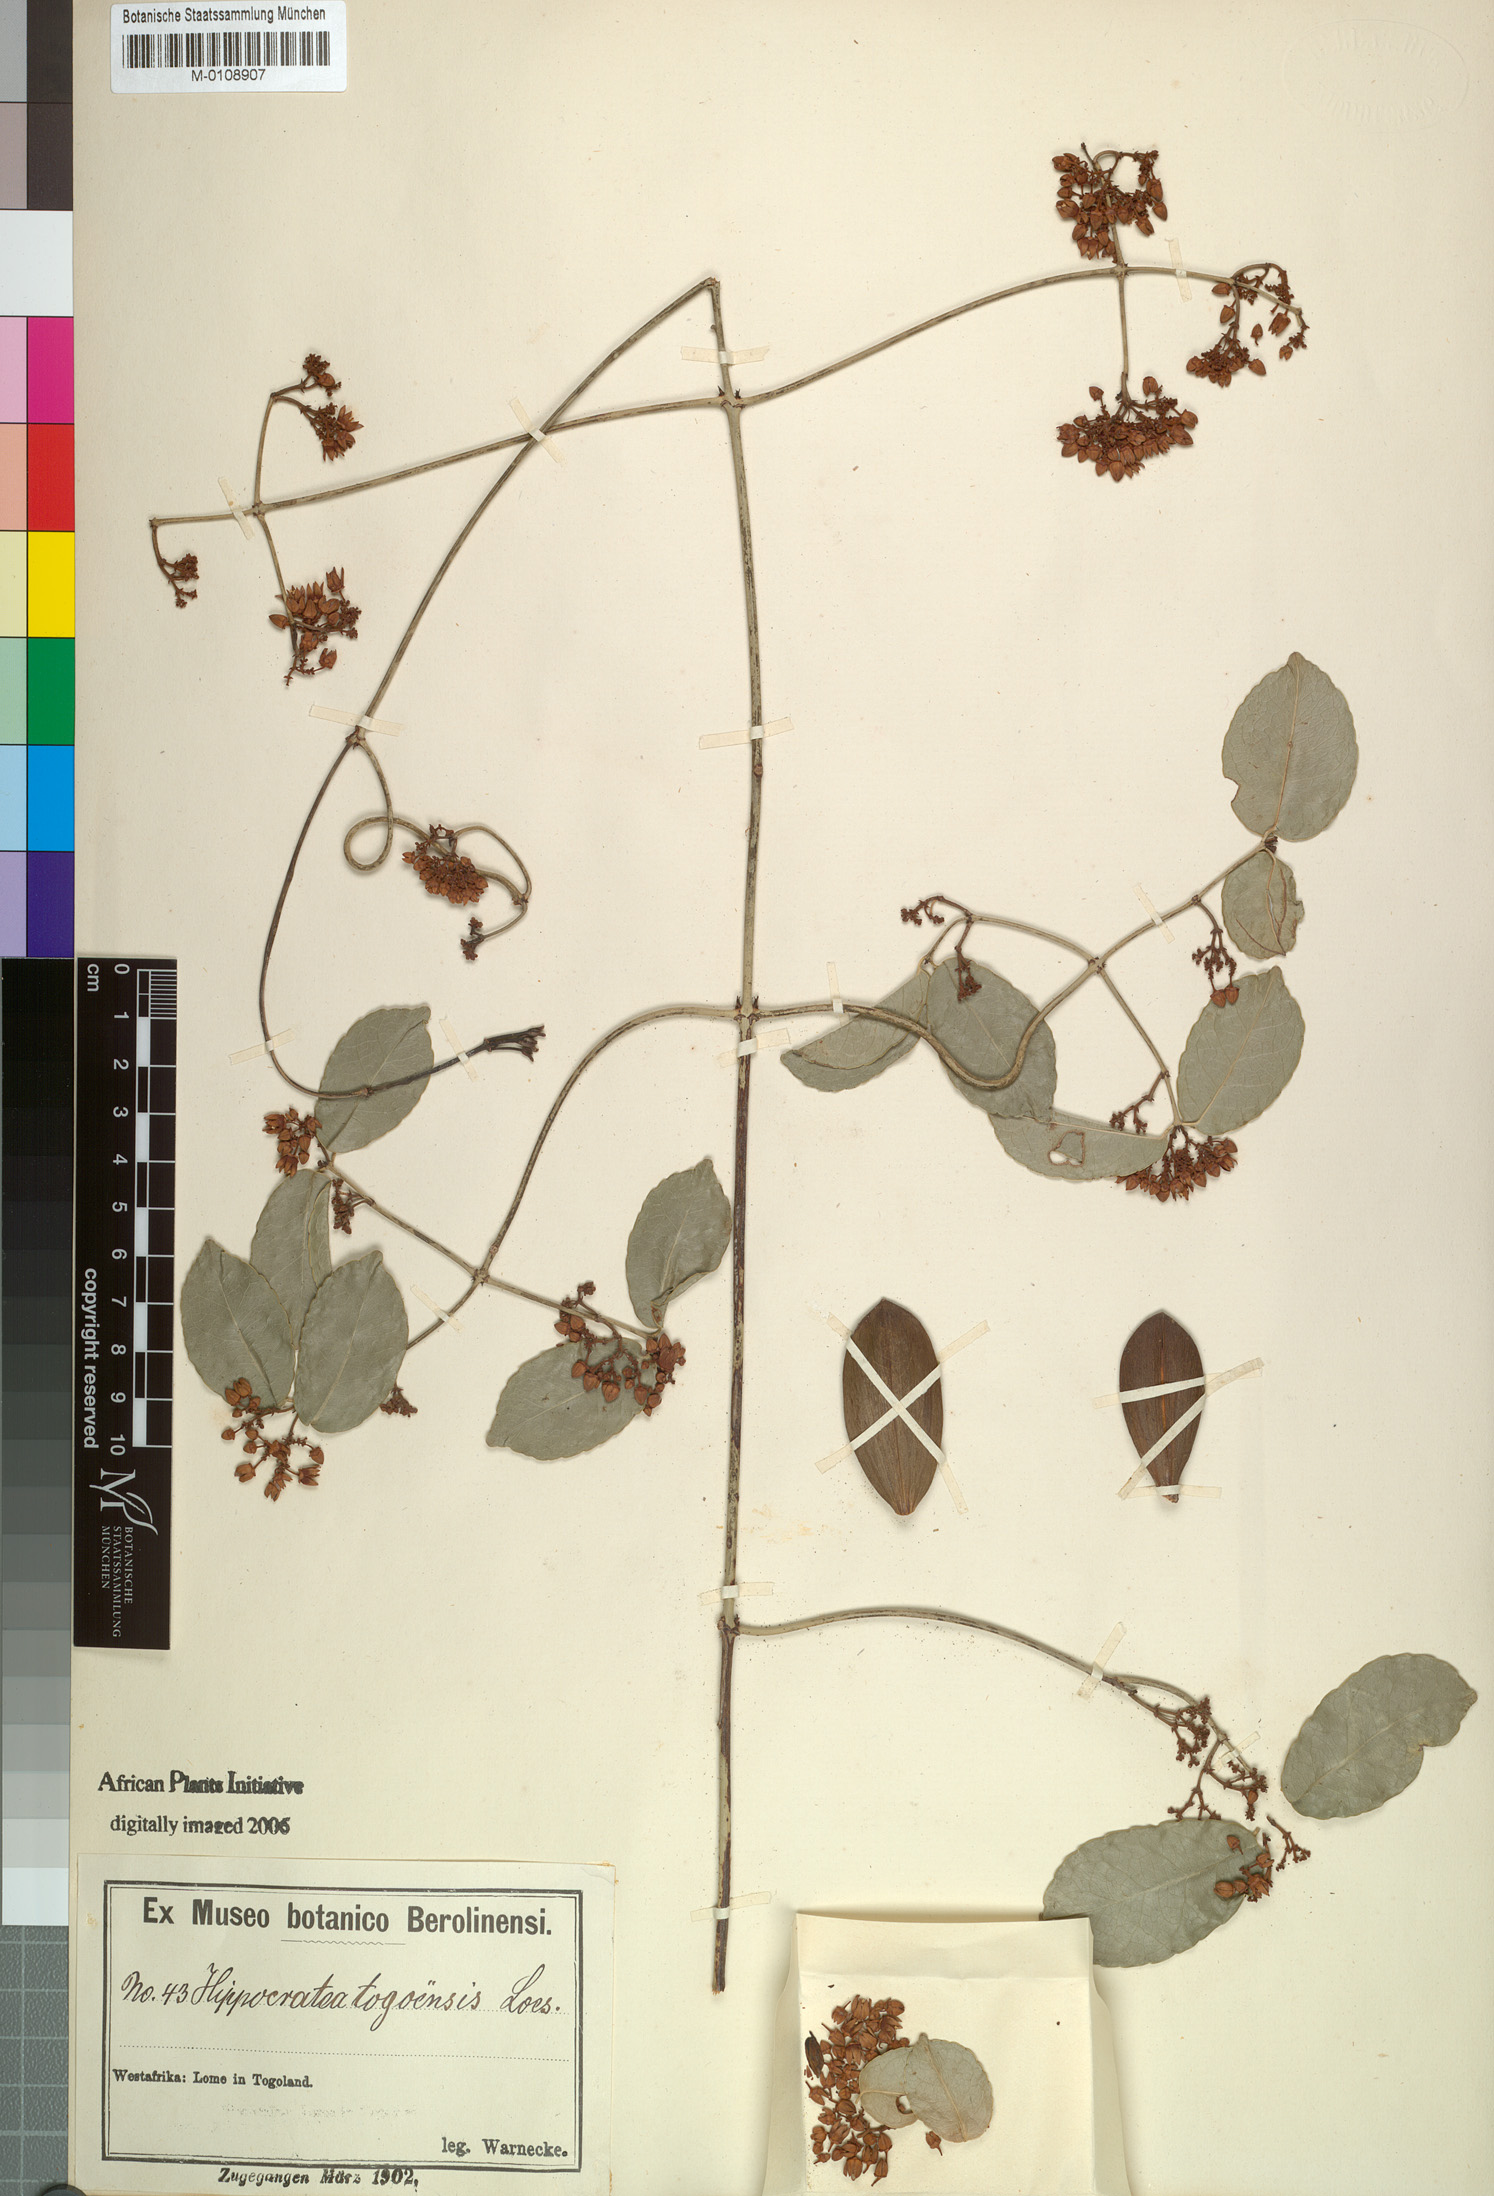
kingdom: Plantae
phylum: Tracheophyta
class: Magnoliopsida
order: Celastrales
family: Celastraceae
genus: Loeseneriella
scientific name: Loeseneriella africana
